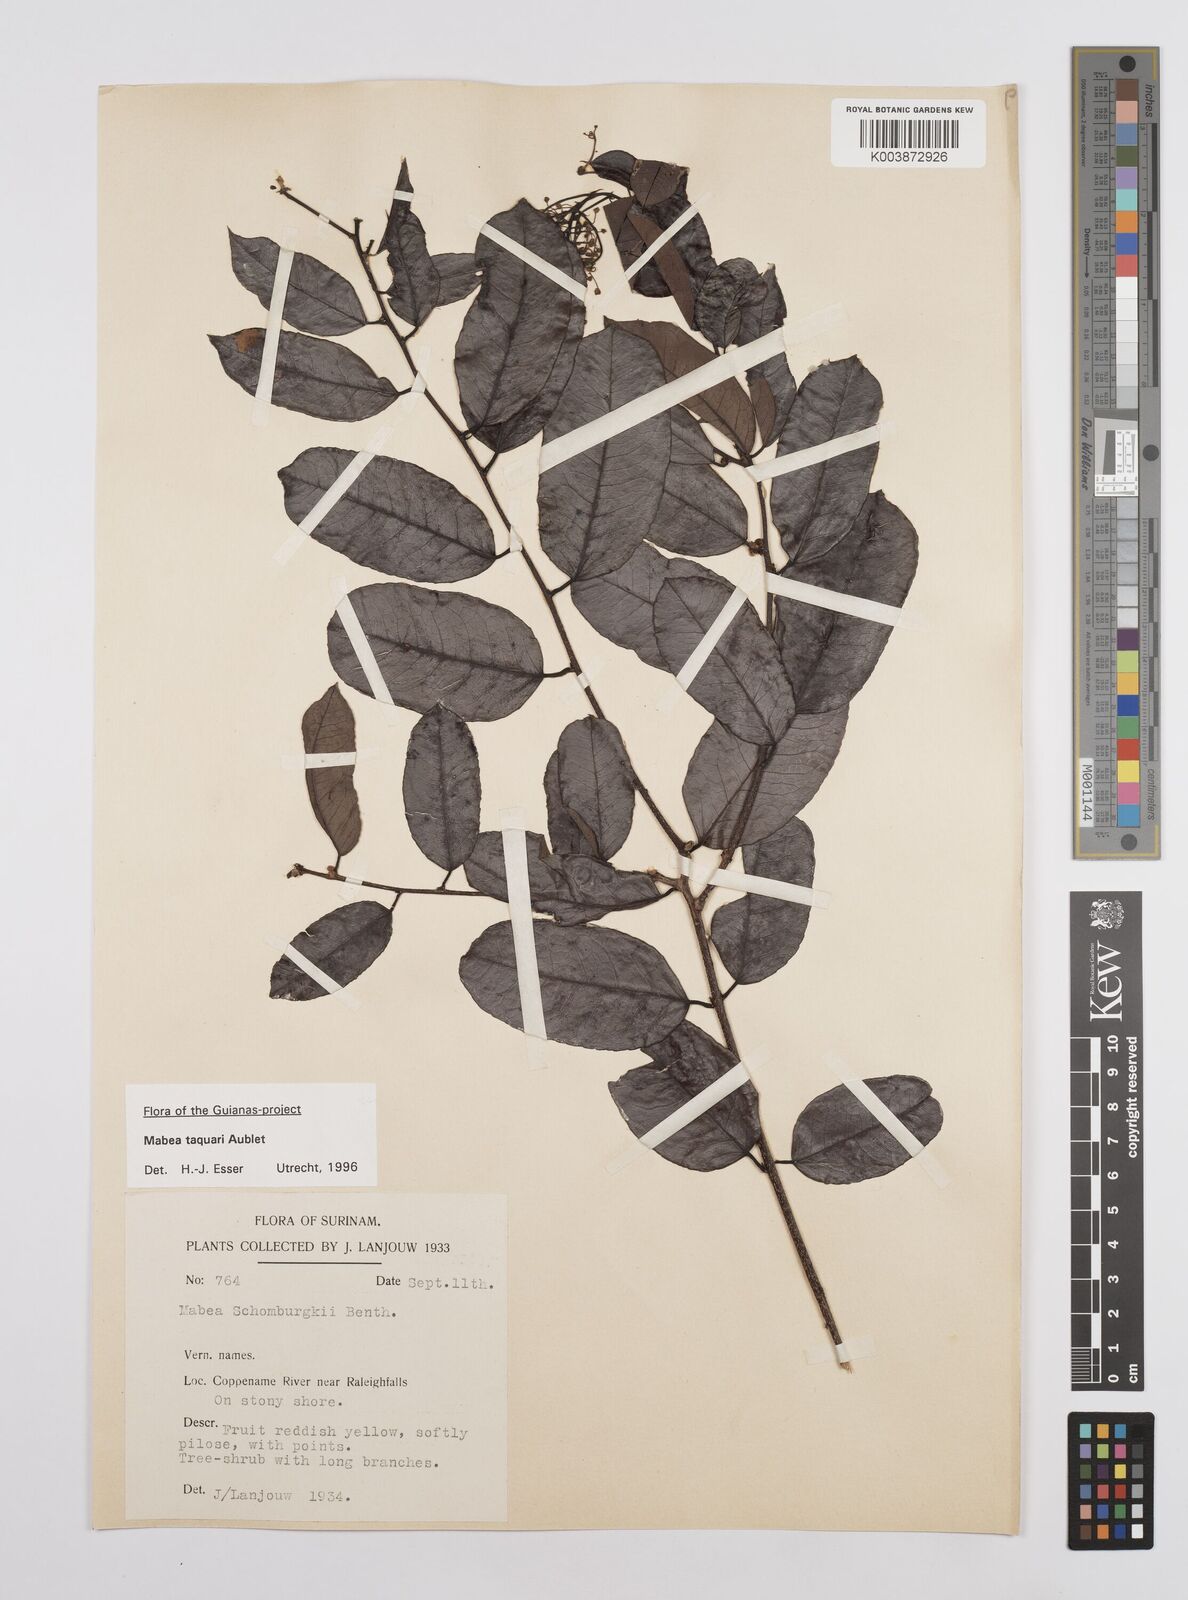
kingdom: Plantae
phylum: Tracheophyta
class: Magnoliopsida
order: Malpighiales
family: Euphorbiaceae
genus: Mabea
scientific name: Mabea taquari
